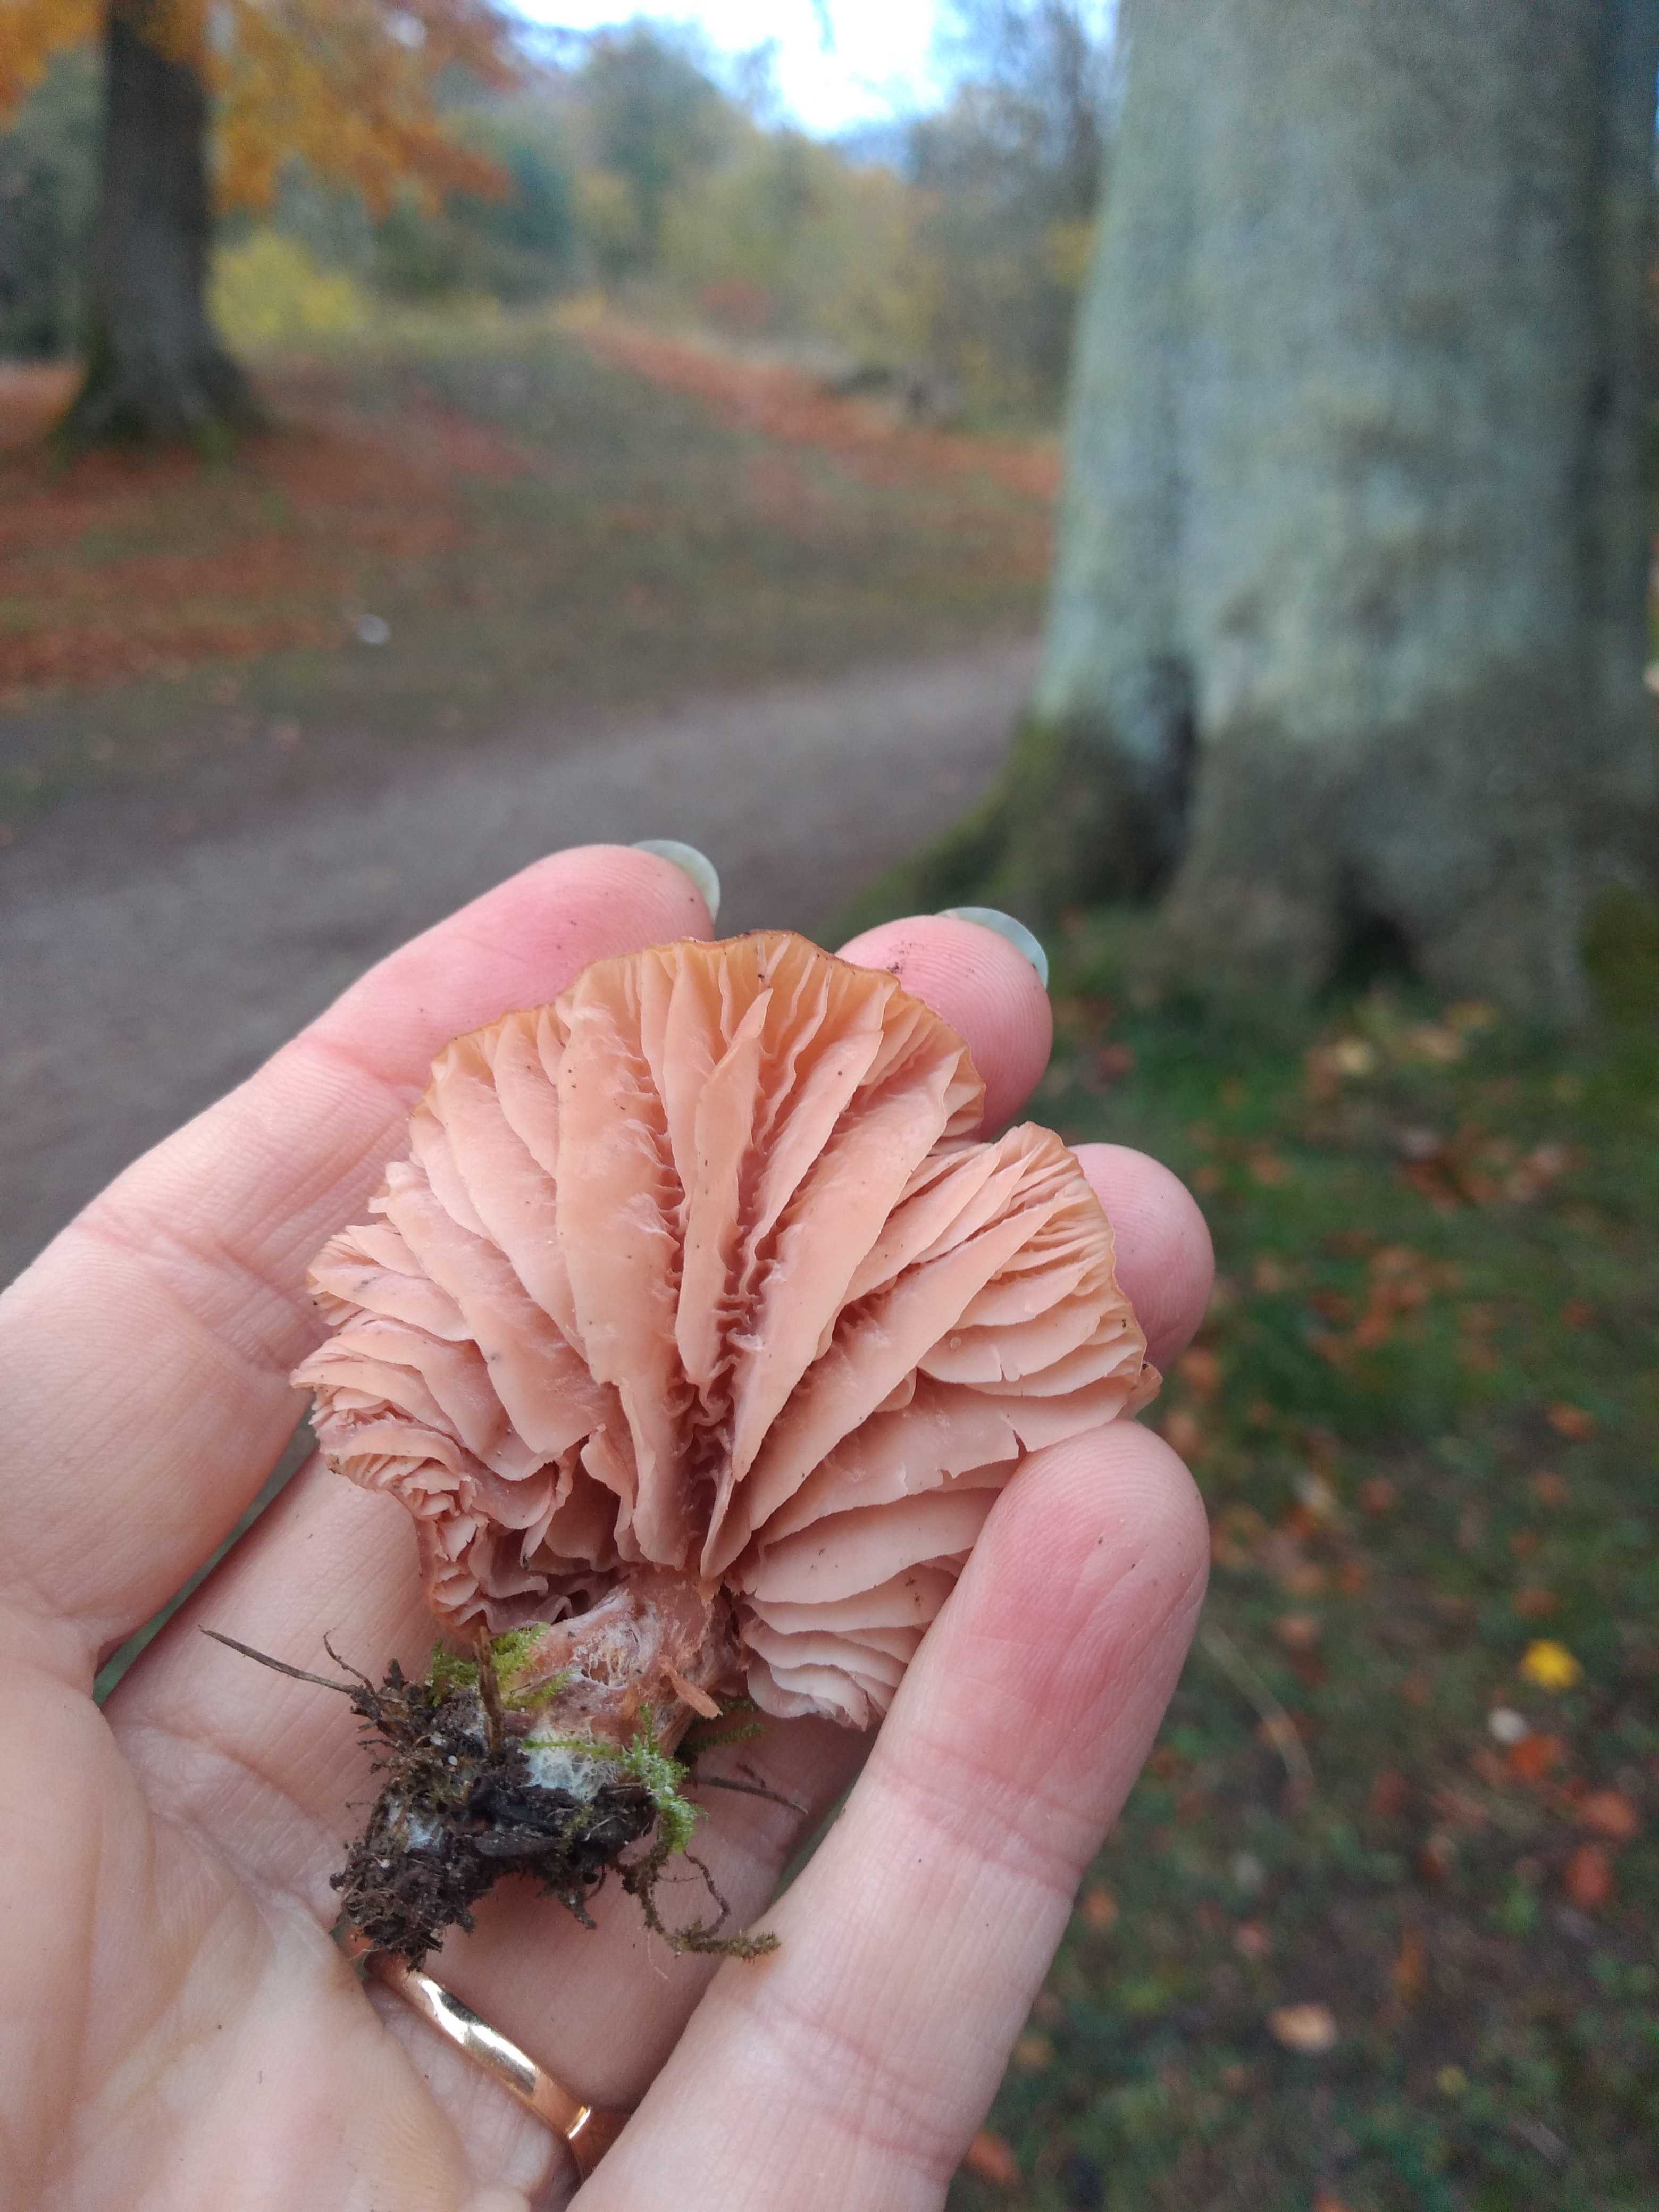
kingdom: Fungi
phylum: Basidiomycota
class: Agaricomycetes
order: Agaricales
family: Hydnangiaceae
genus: Laccaria
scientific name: Laccaria
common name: ametysthat
